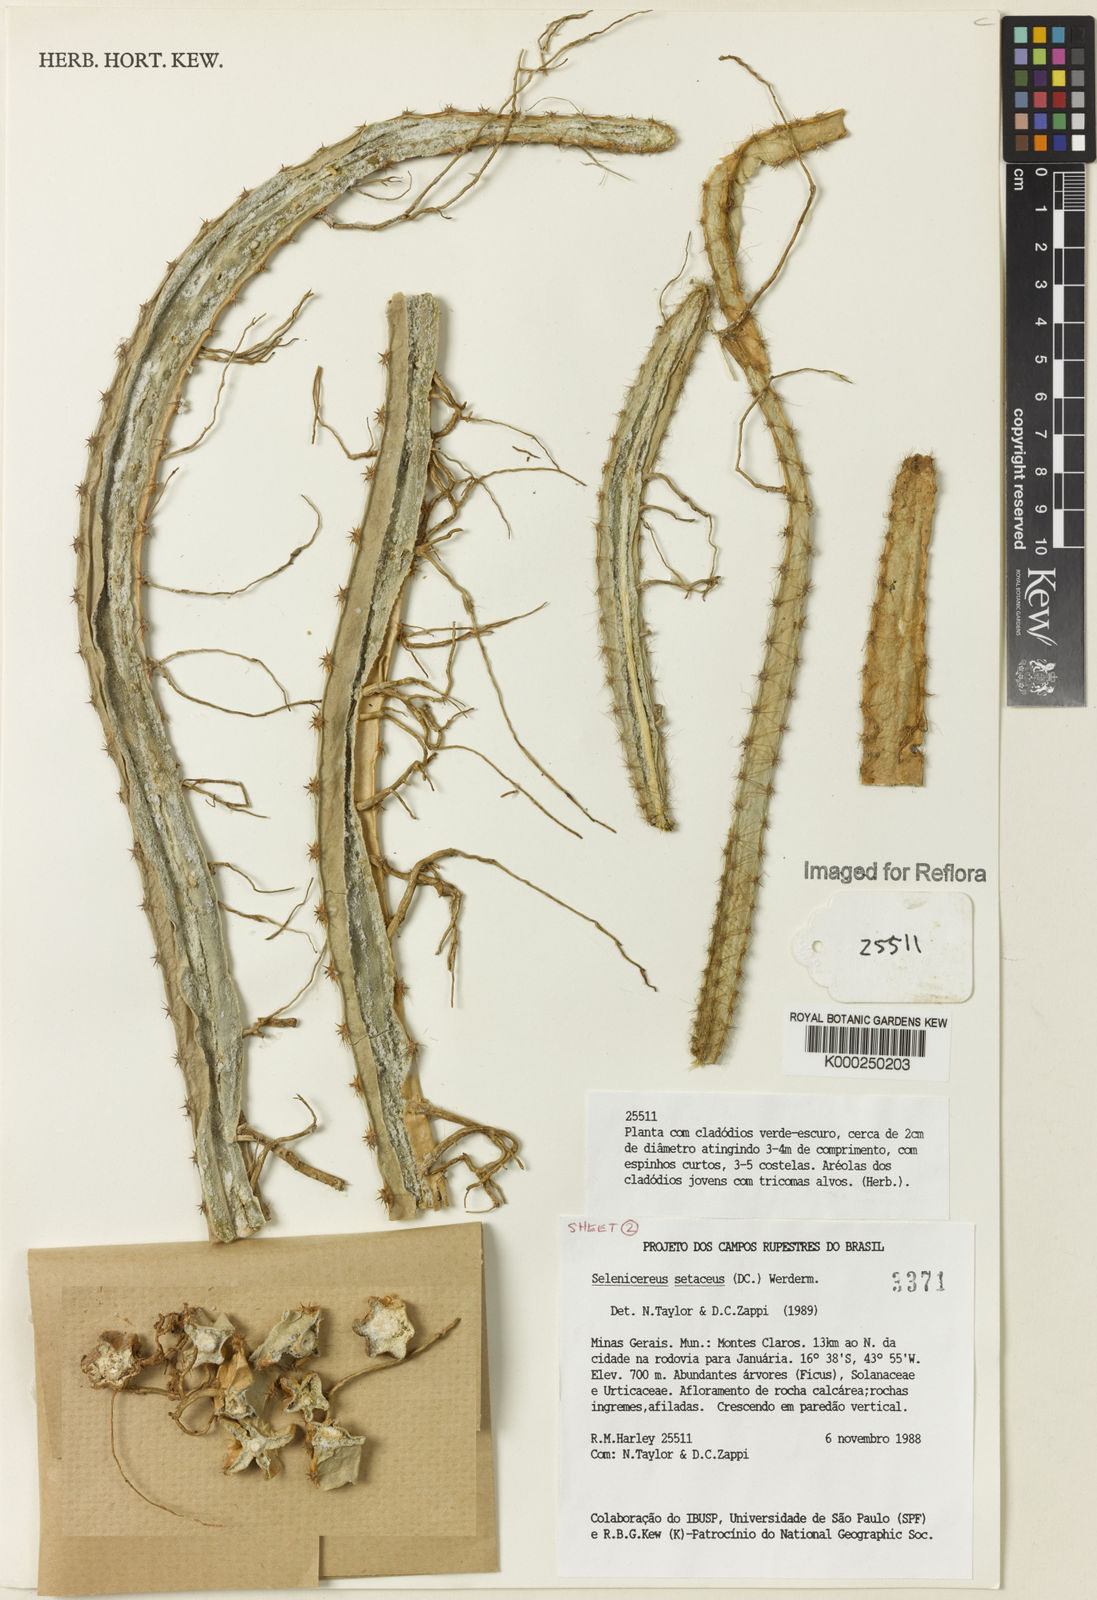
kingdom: Plantae
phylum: Tracheophyta
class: Magnoliopsida
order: Caryophyllales
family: Cactaceae
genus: Selenicereus
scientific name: Selenicereus
